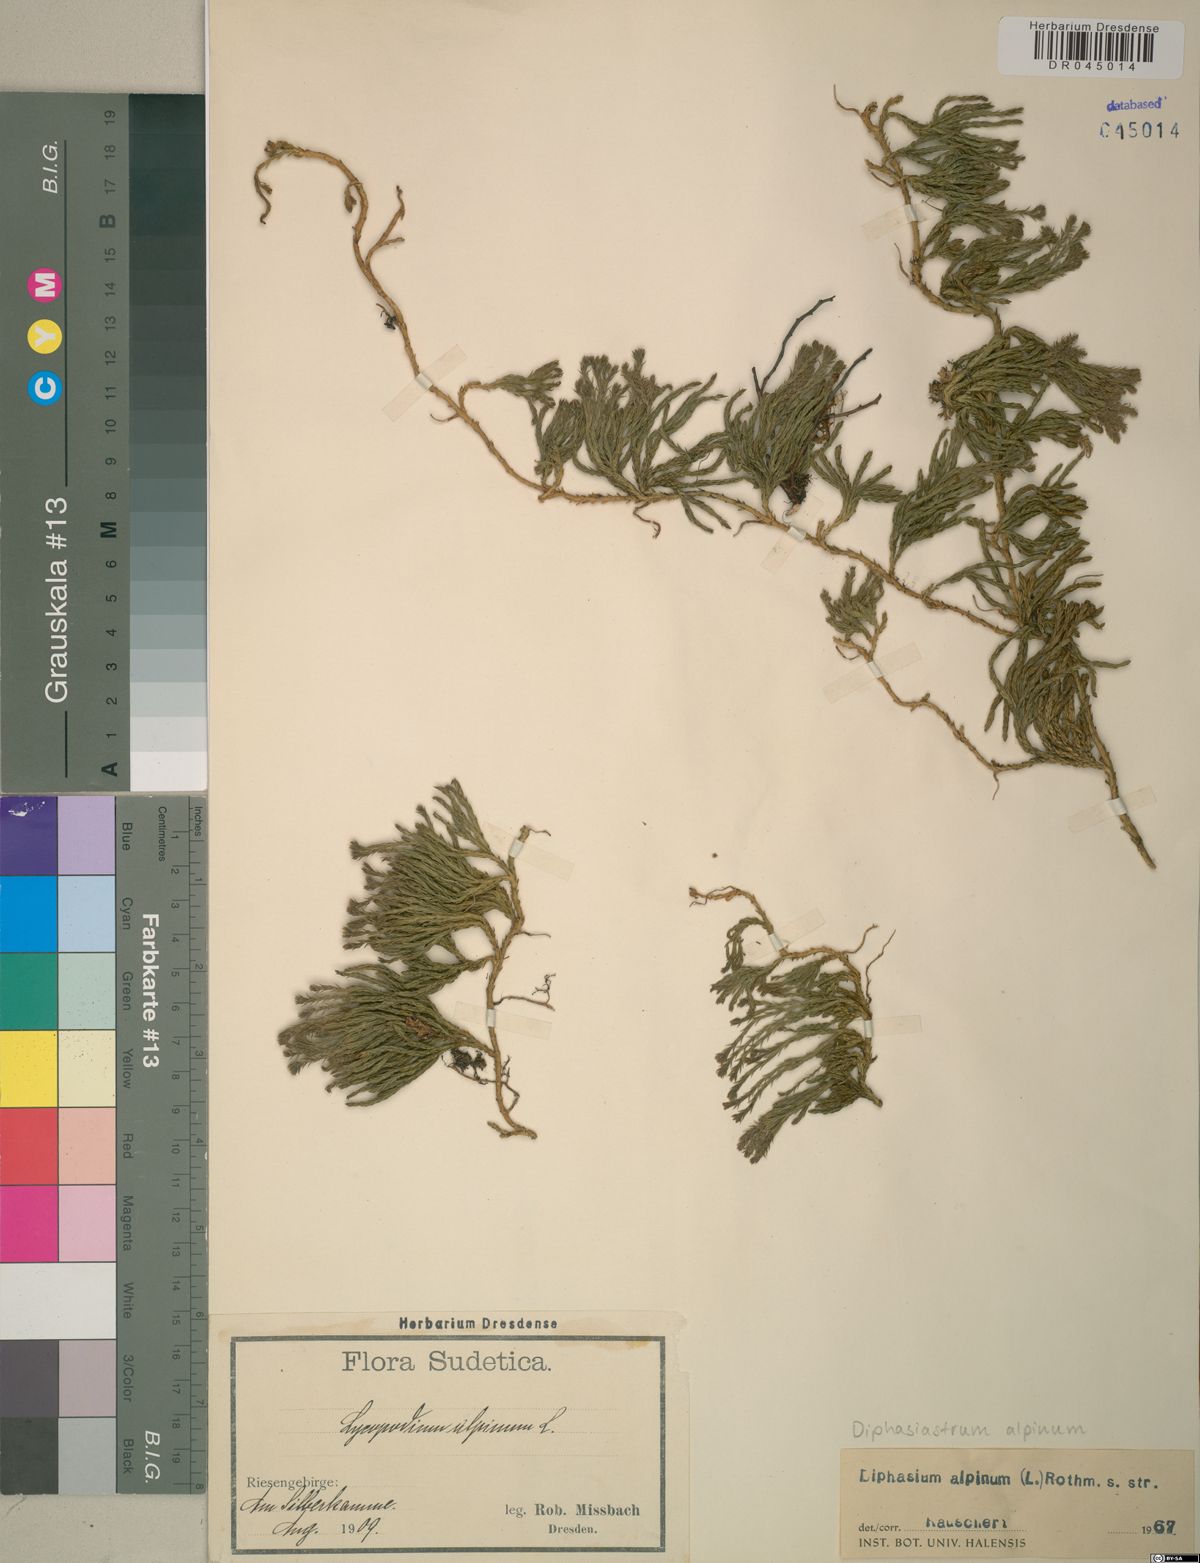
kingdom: Plantae
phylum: Tracheophyta
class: Lycopodiopsida
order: Lycopodiales
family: Lycopodiaceae
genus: Diphasiastrum
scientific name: Diphasiastrum alpinum
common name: Alpine clubmoss
